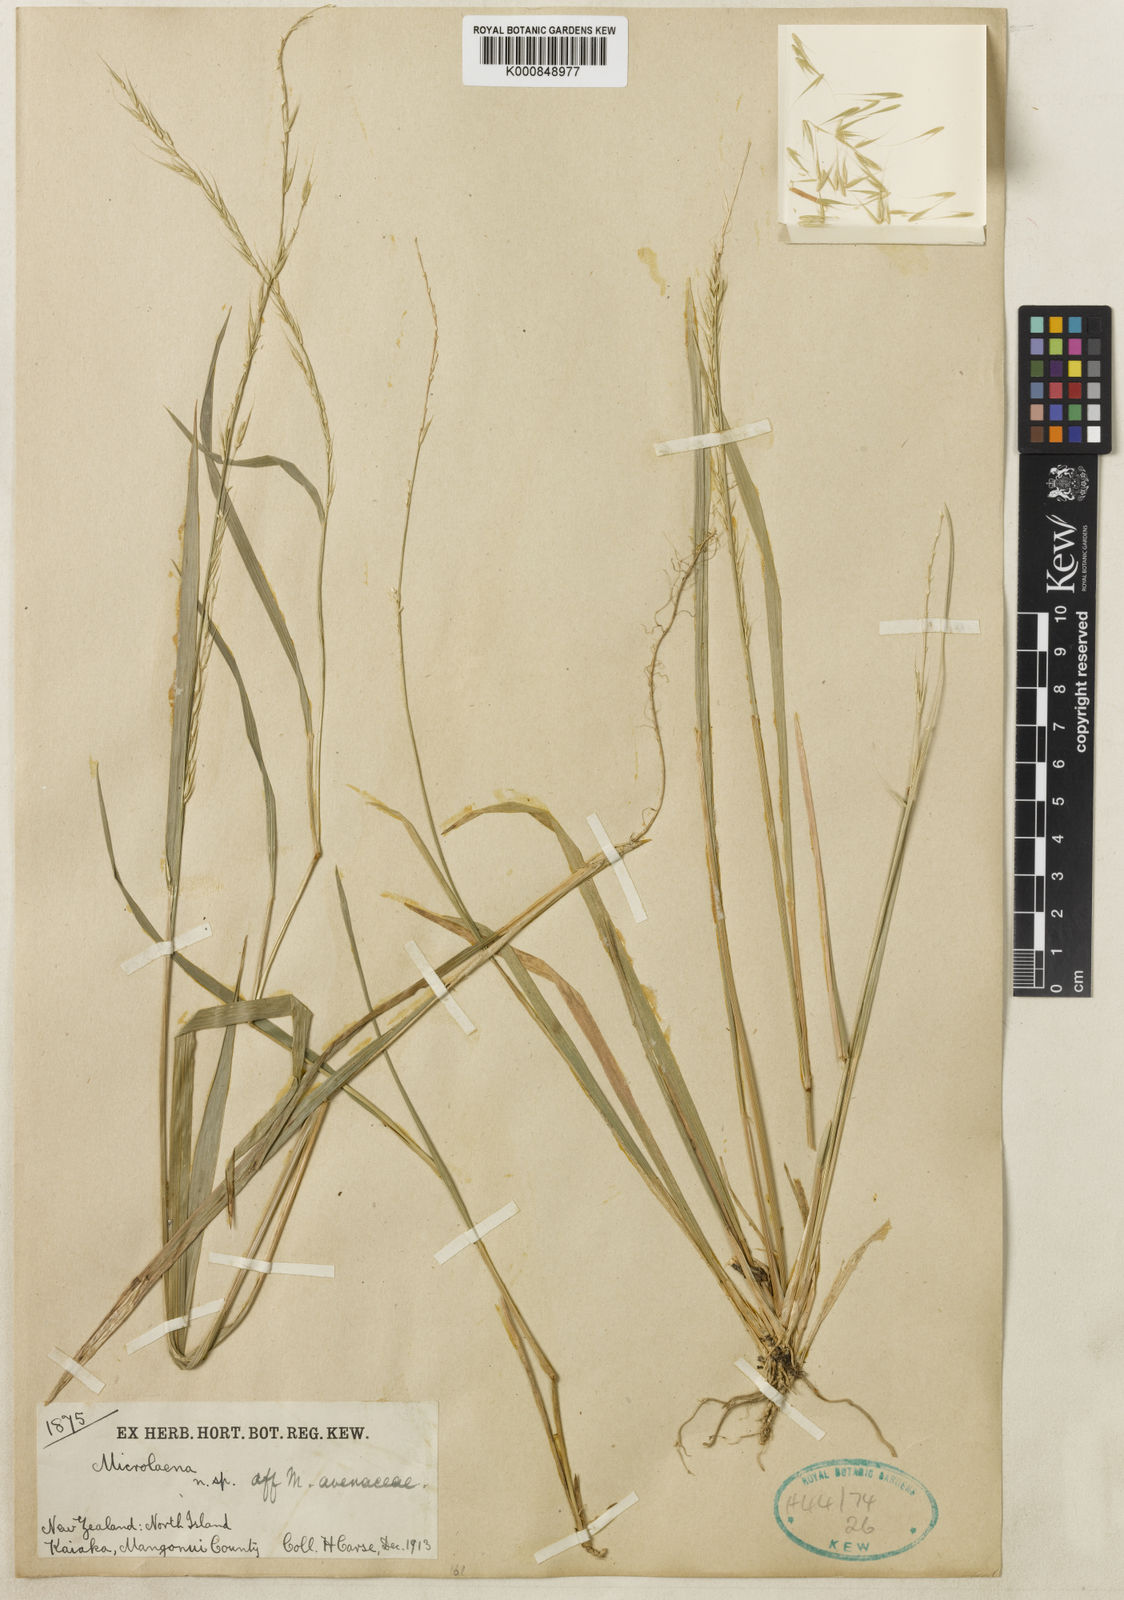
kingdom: Plantae
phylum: Tracheophyta
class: Liliopsida
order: Poales
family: Poaceae
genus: Ehrharta
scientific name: Ehrharta diplax
